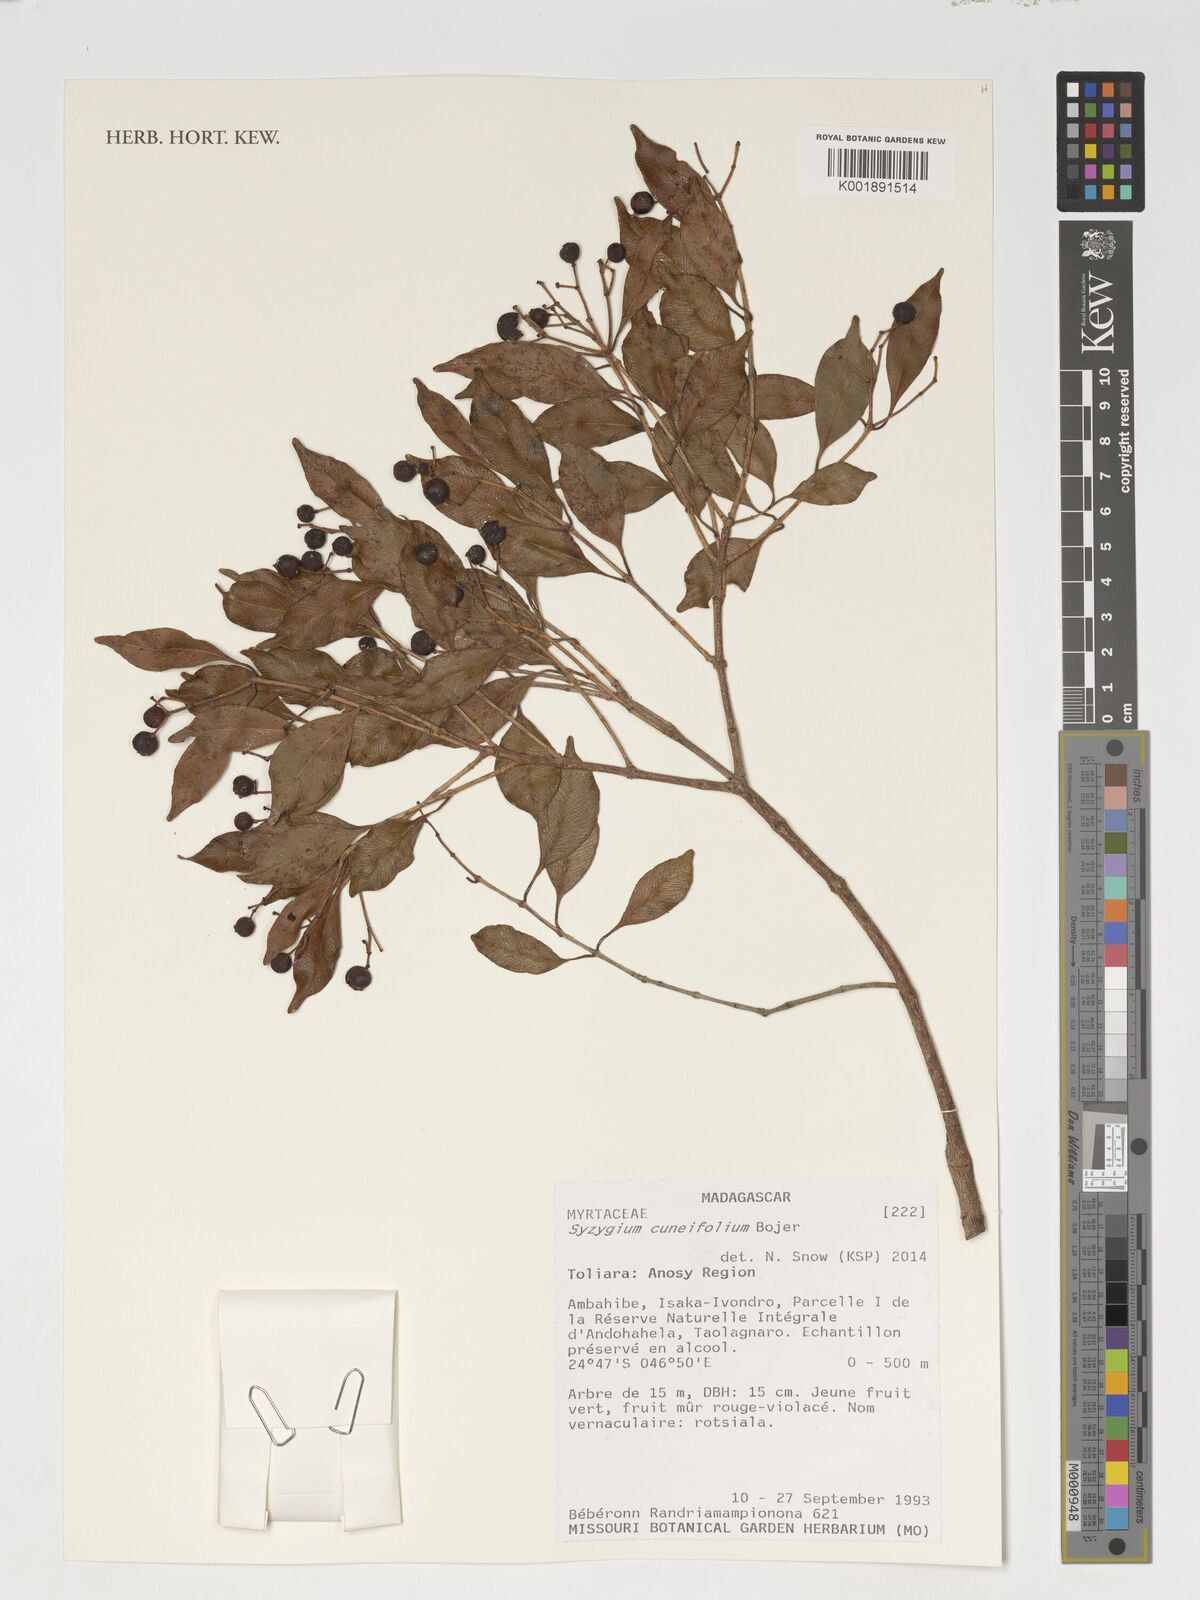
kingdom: Plantae
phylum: Tracheophyta
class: Magnoliopsida
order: Myrtales
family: Myrtaceae
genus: Syzygium
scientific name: Syzygium
